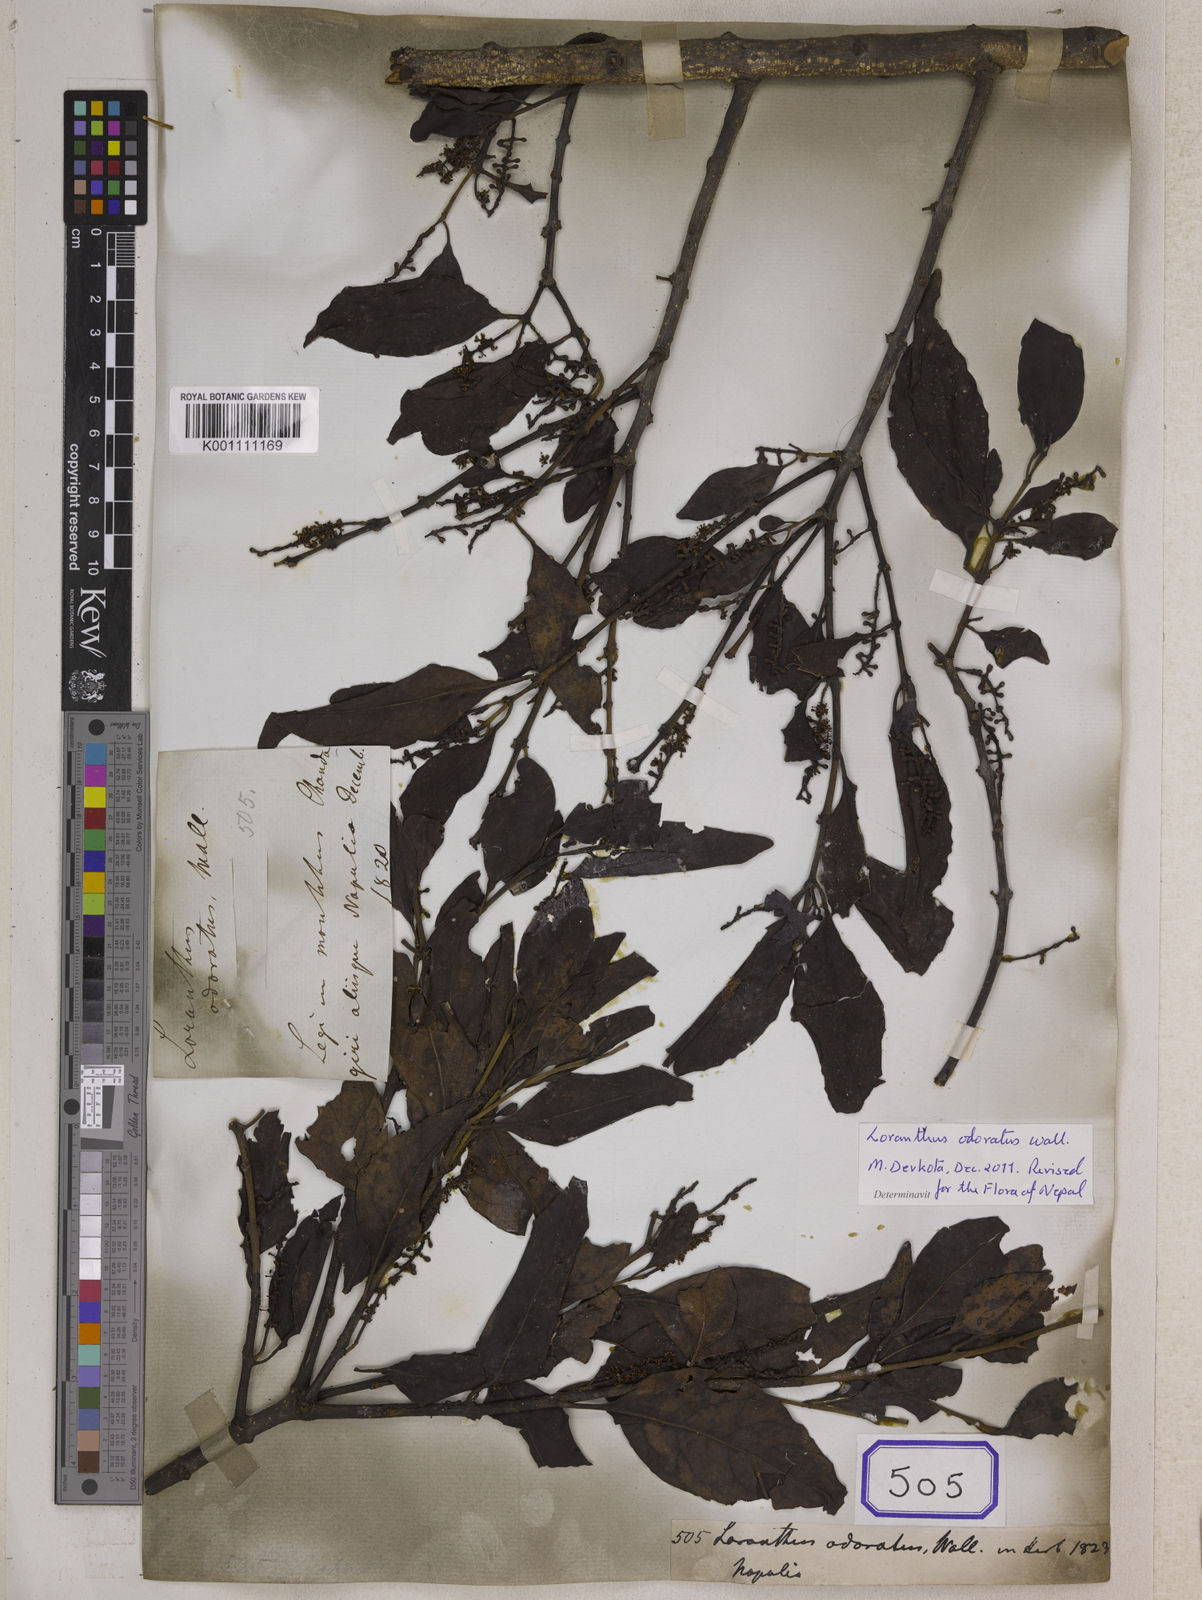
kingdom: Plantae
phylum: Tracheophyta
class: Magnoliopsida
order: Santalales
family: Loranthaceae
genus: Helixanthera
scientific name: Helixanthera odorata
